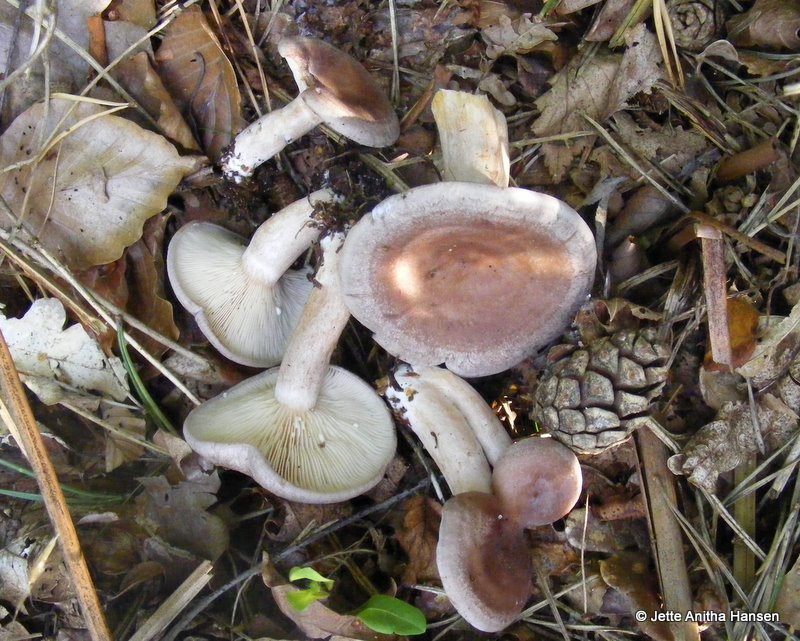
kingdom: Fungi
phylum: Basidiomycota
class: Agaricomycetes
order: Russulales
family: Russulaceae
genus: Lactarius
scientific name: Lactarius vietus
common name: violetgrå mælkehat
